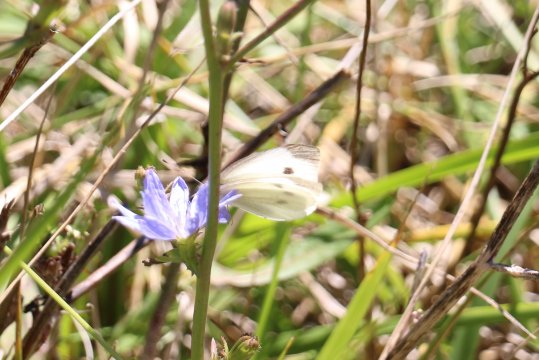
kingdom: Animalia
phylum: Arthropoda
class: Insecta
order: Lepidoptera
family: Pieridae
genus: Pieris
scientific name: Pieris rapae
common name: Cabbage White
